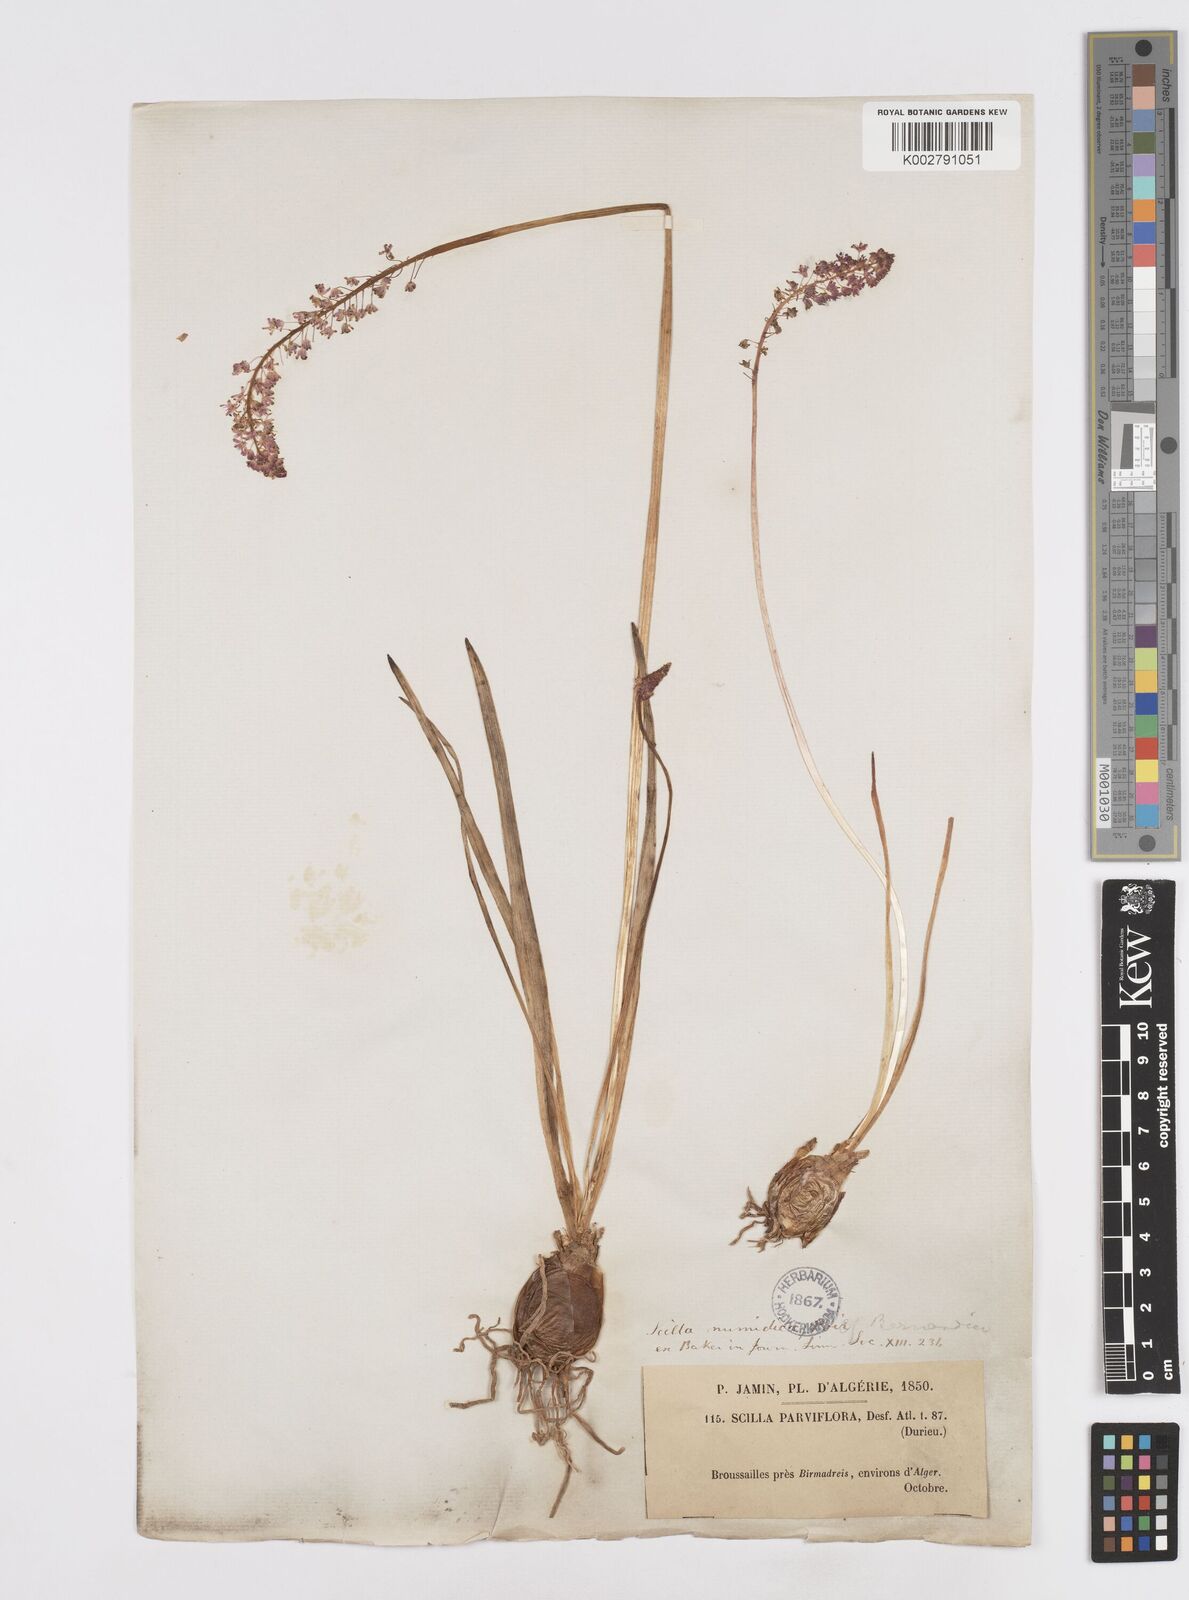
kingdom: Plantae
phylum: Tracheophyta
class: Liliopsida
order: Asparagales
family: Asparagaceae
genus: Barnardia
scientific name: Barnardia numidica
